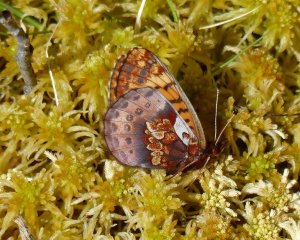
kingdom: Animalia
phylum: Arthropoda
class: Insecta
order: Lepidoptera
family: Nymphalidae
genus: Boloria
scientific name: Boloria frigga
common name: Frigga Fritillary
